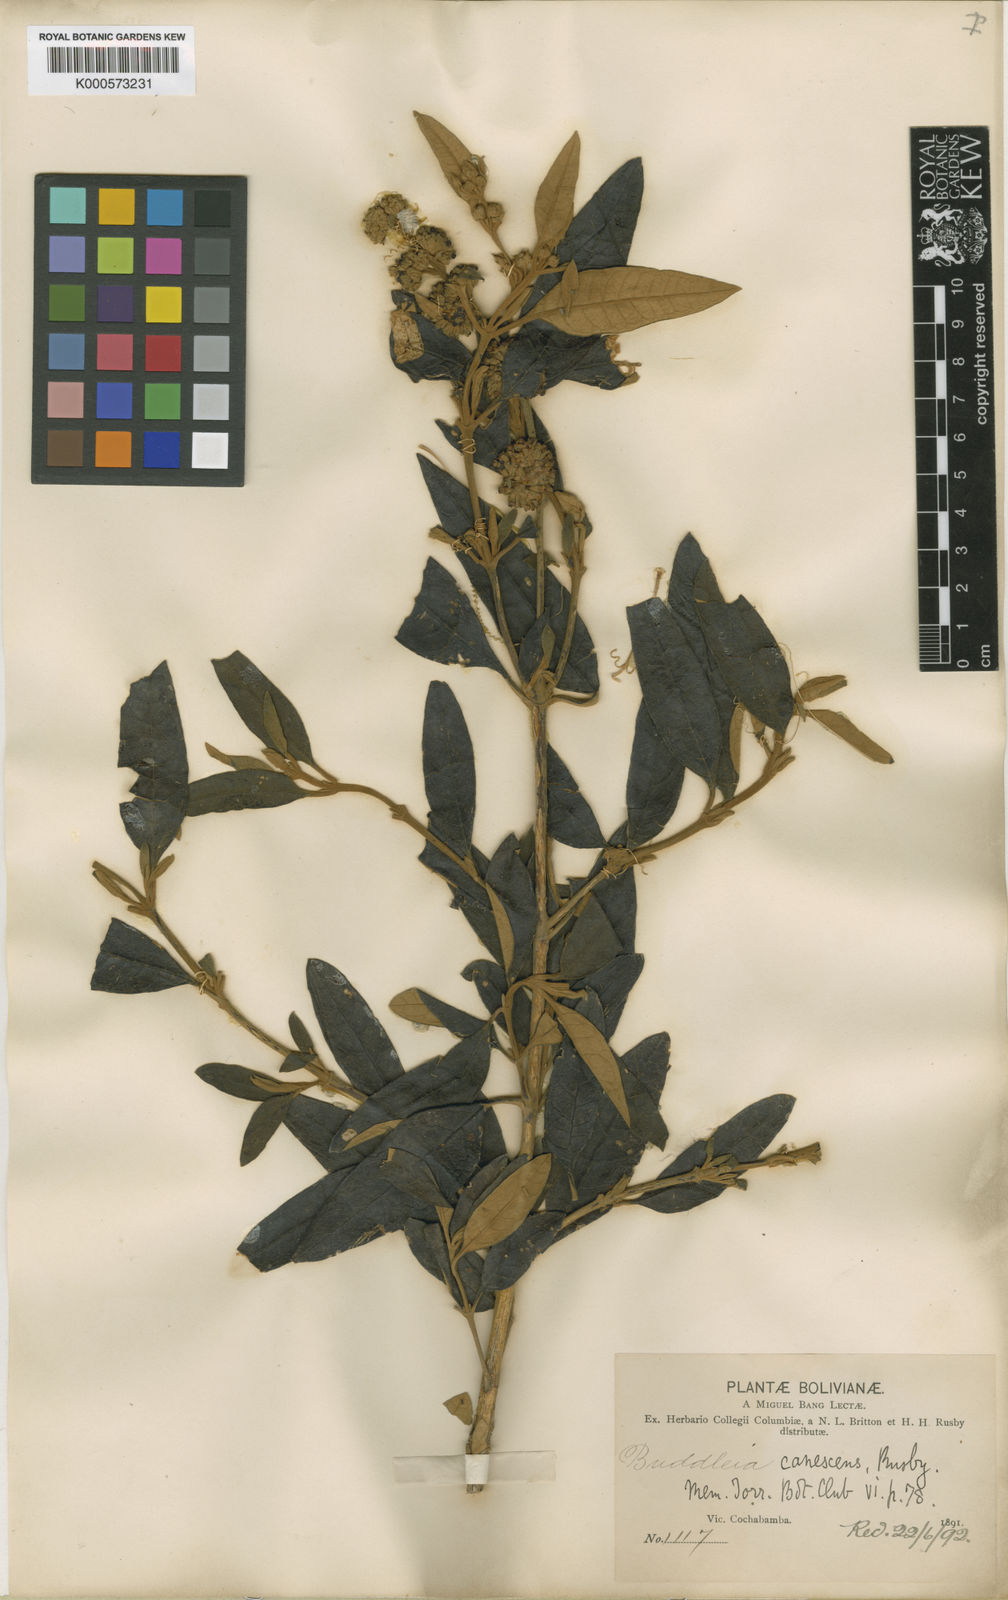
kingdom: Plantae
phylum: Tracheophyta
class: Magnoliopsida
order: Lamiales
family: Scrophulariaceae
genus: Buddleja
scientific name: Buddleja tucumanensis
